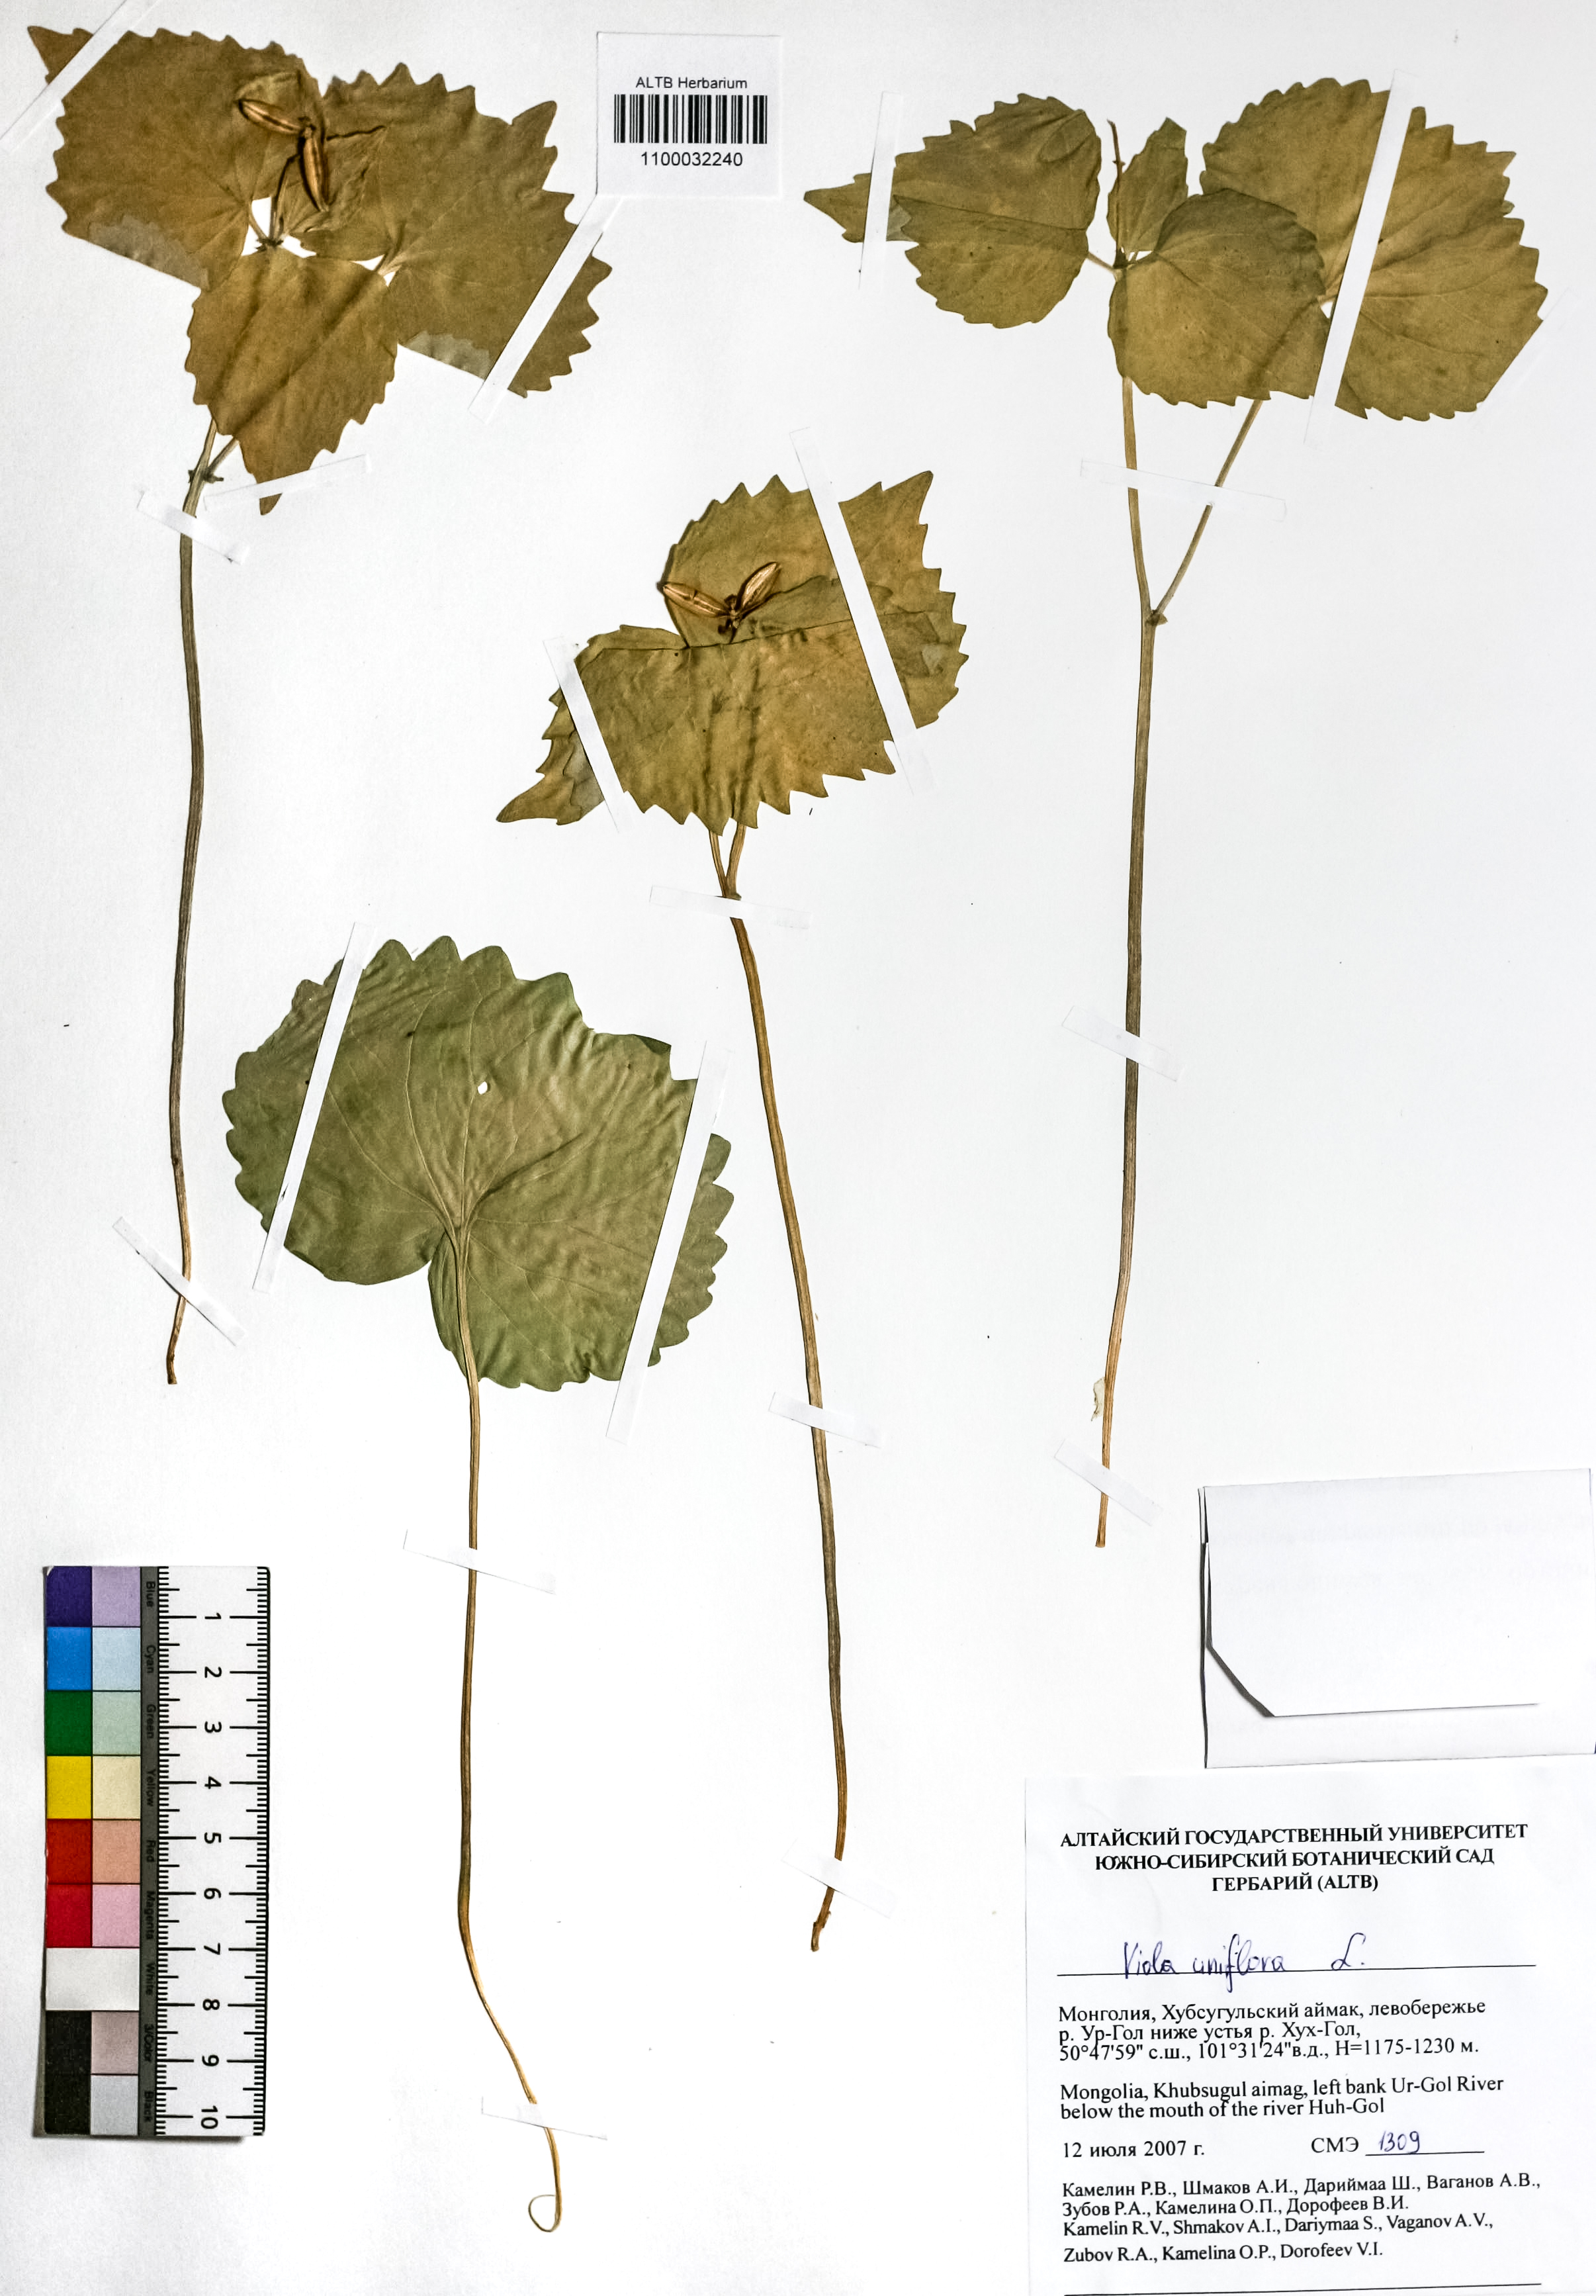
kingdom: Plantae
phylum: Tracheophyta
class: Magnoliopsida
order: Malpighiales
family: Violaceae
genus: Viola
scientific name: Viola uniflora
